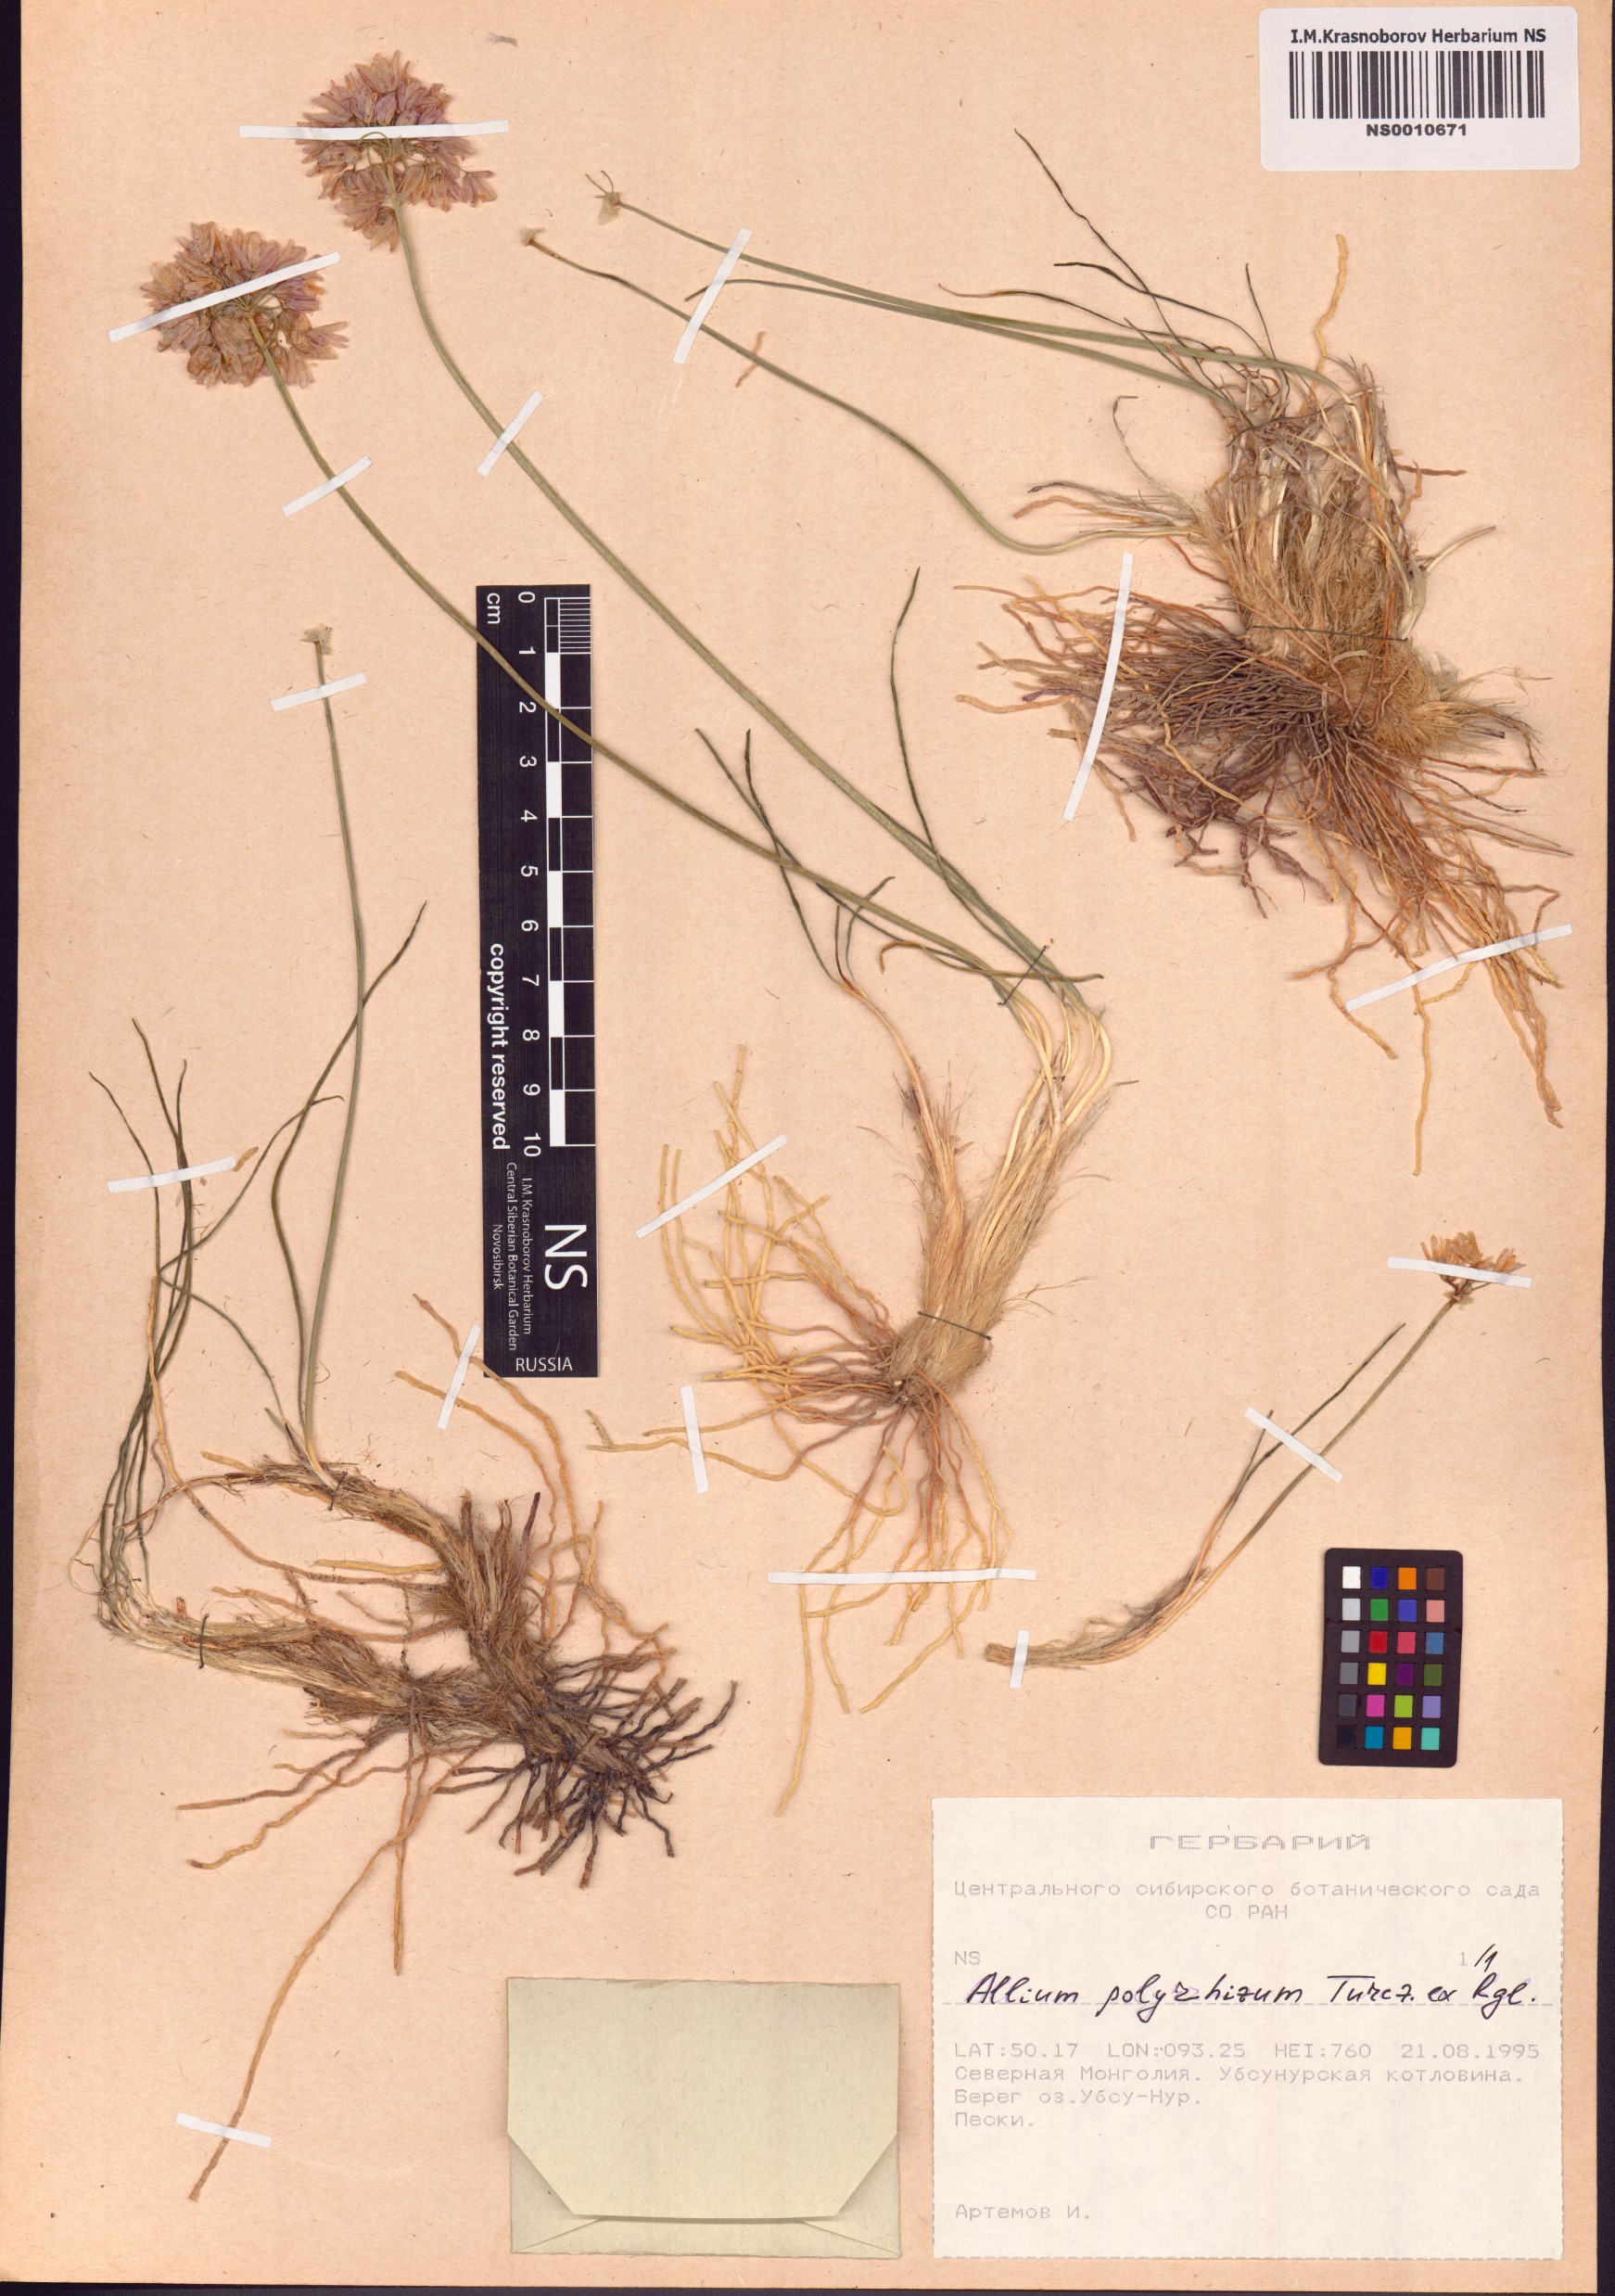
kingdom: Plantae
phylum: Tracheophyta
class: Liliopsida
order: Asparagales
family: Amaryllidaceae
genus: Allium
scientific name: Allium polyrhizum
